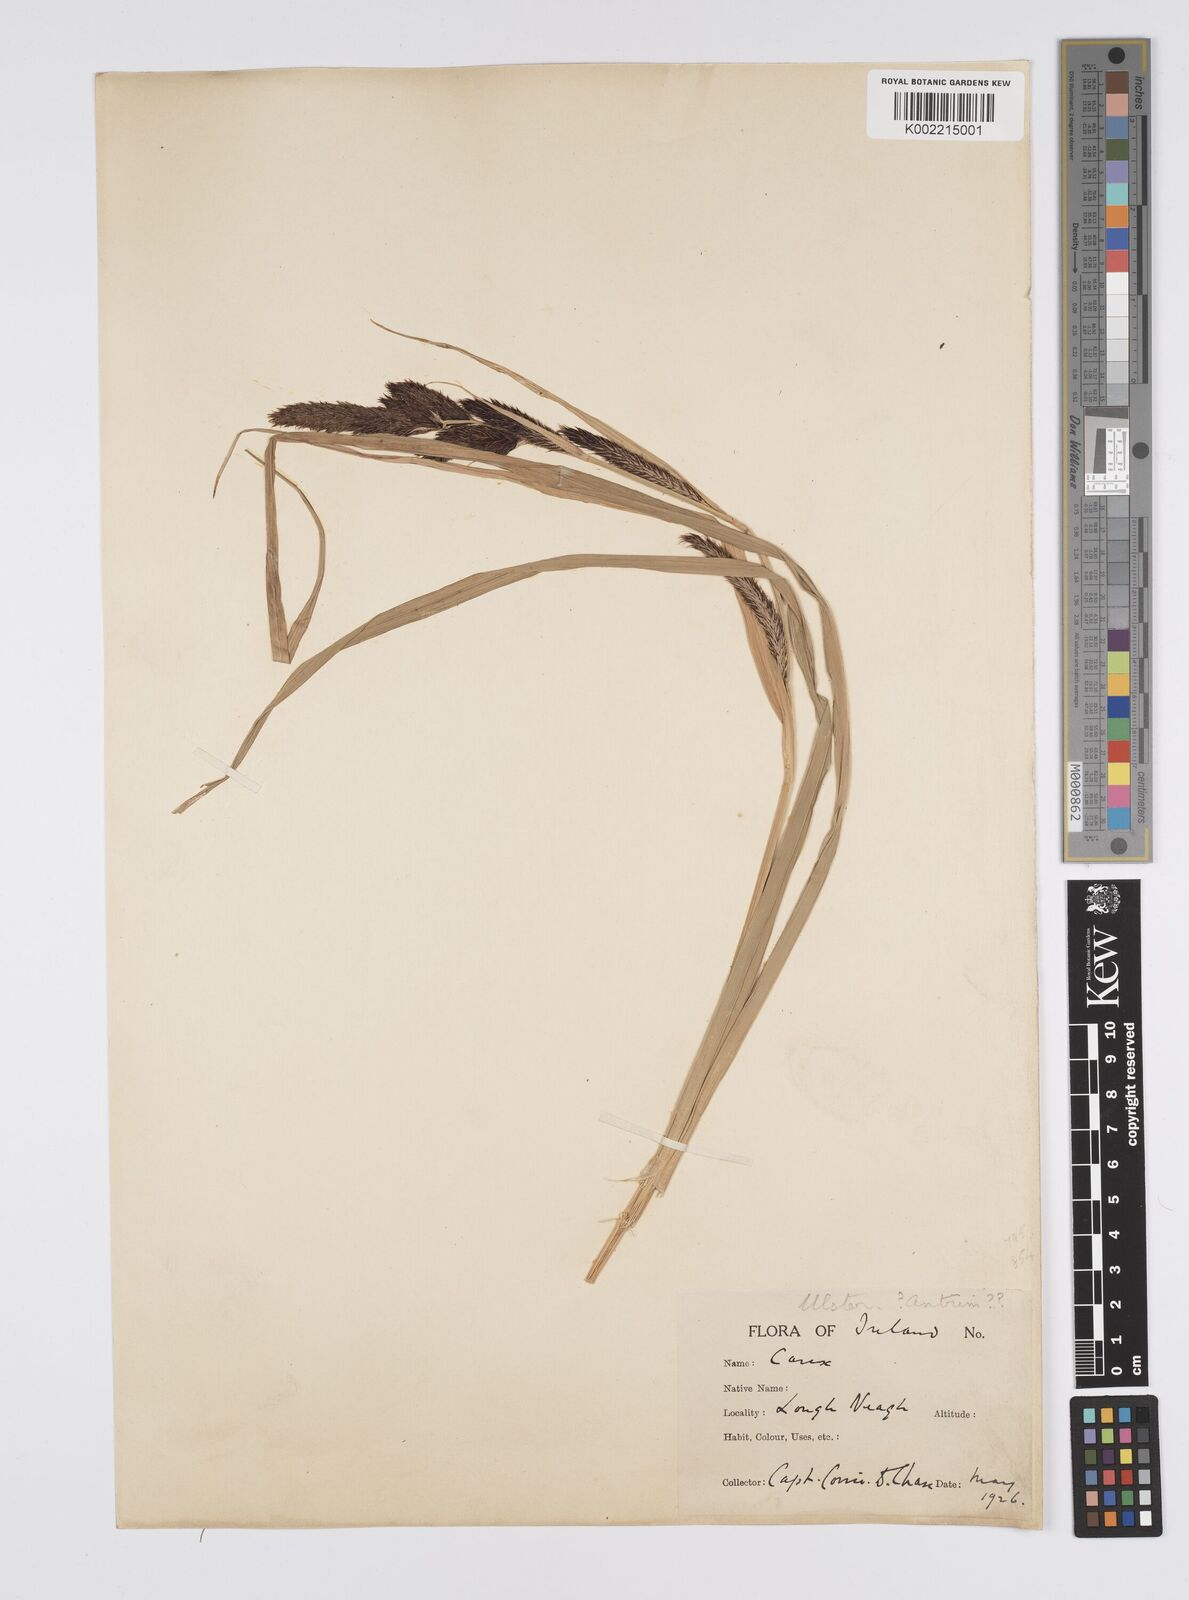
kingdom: Plantae
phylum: Tracheophyta
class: Liliopsida
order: Poales
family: Cyperaceae
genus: Carex
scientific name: Carex riparia
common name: Greater pond-sedge
